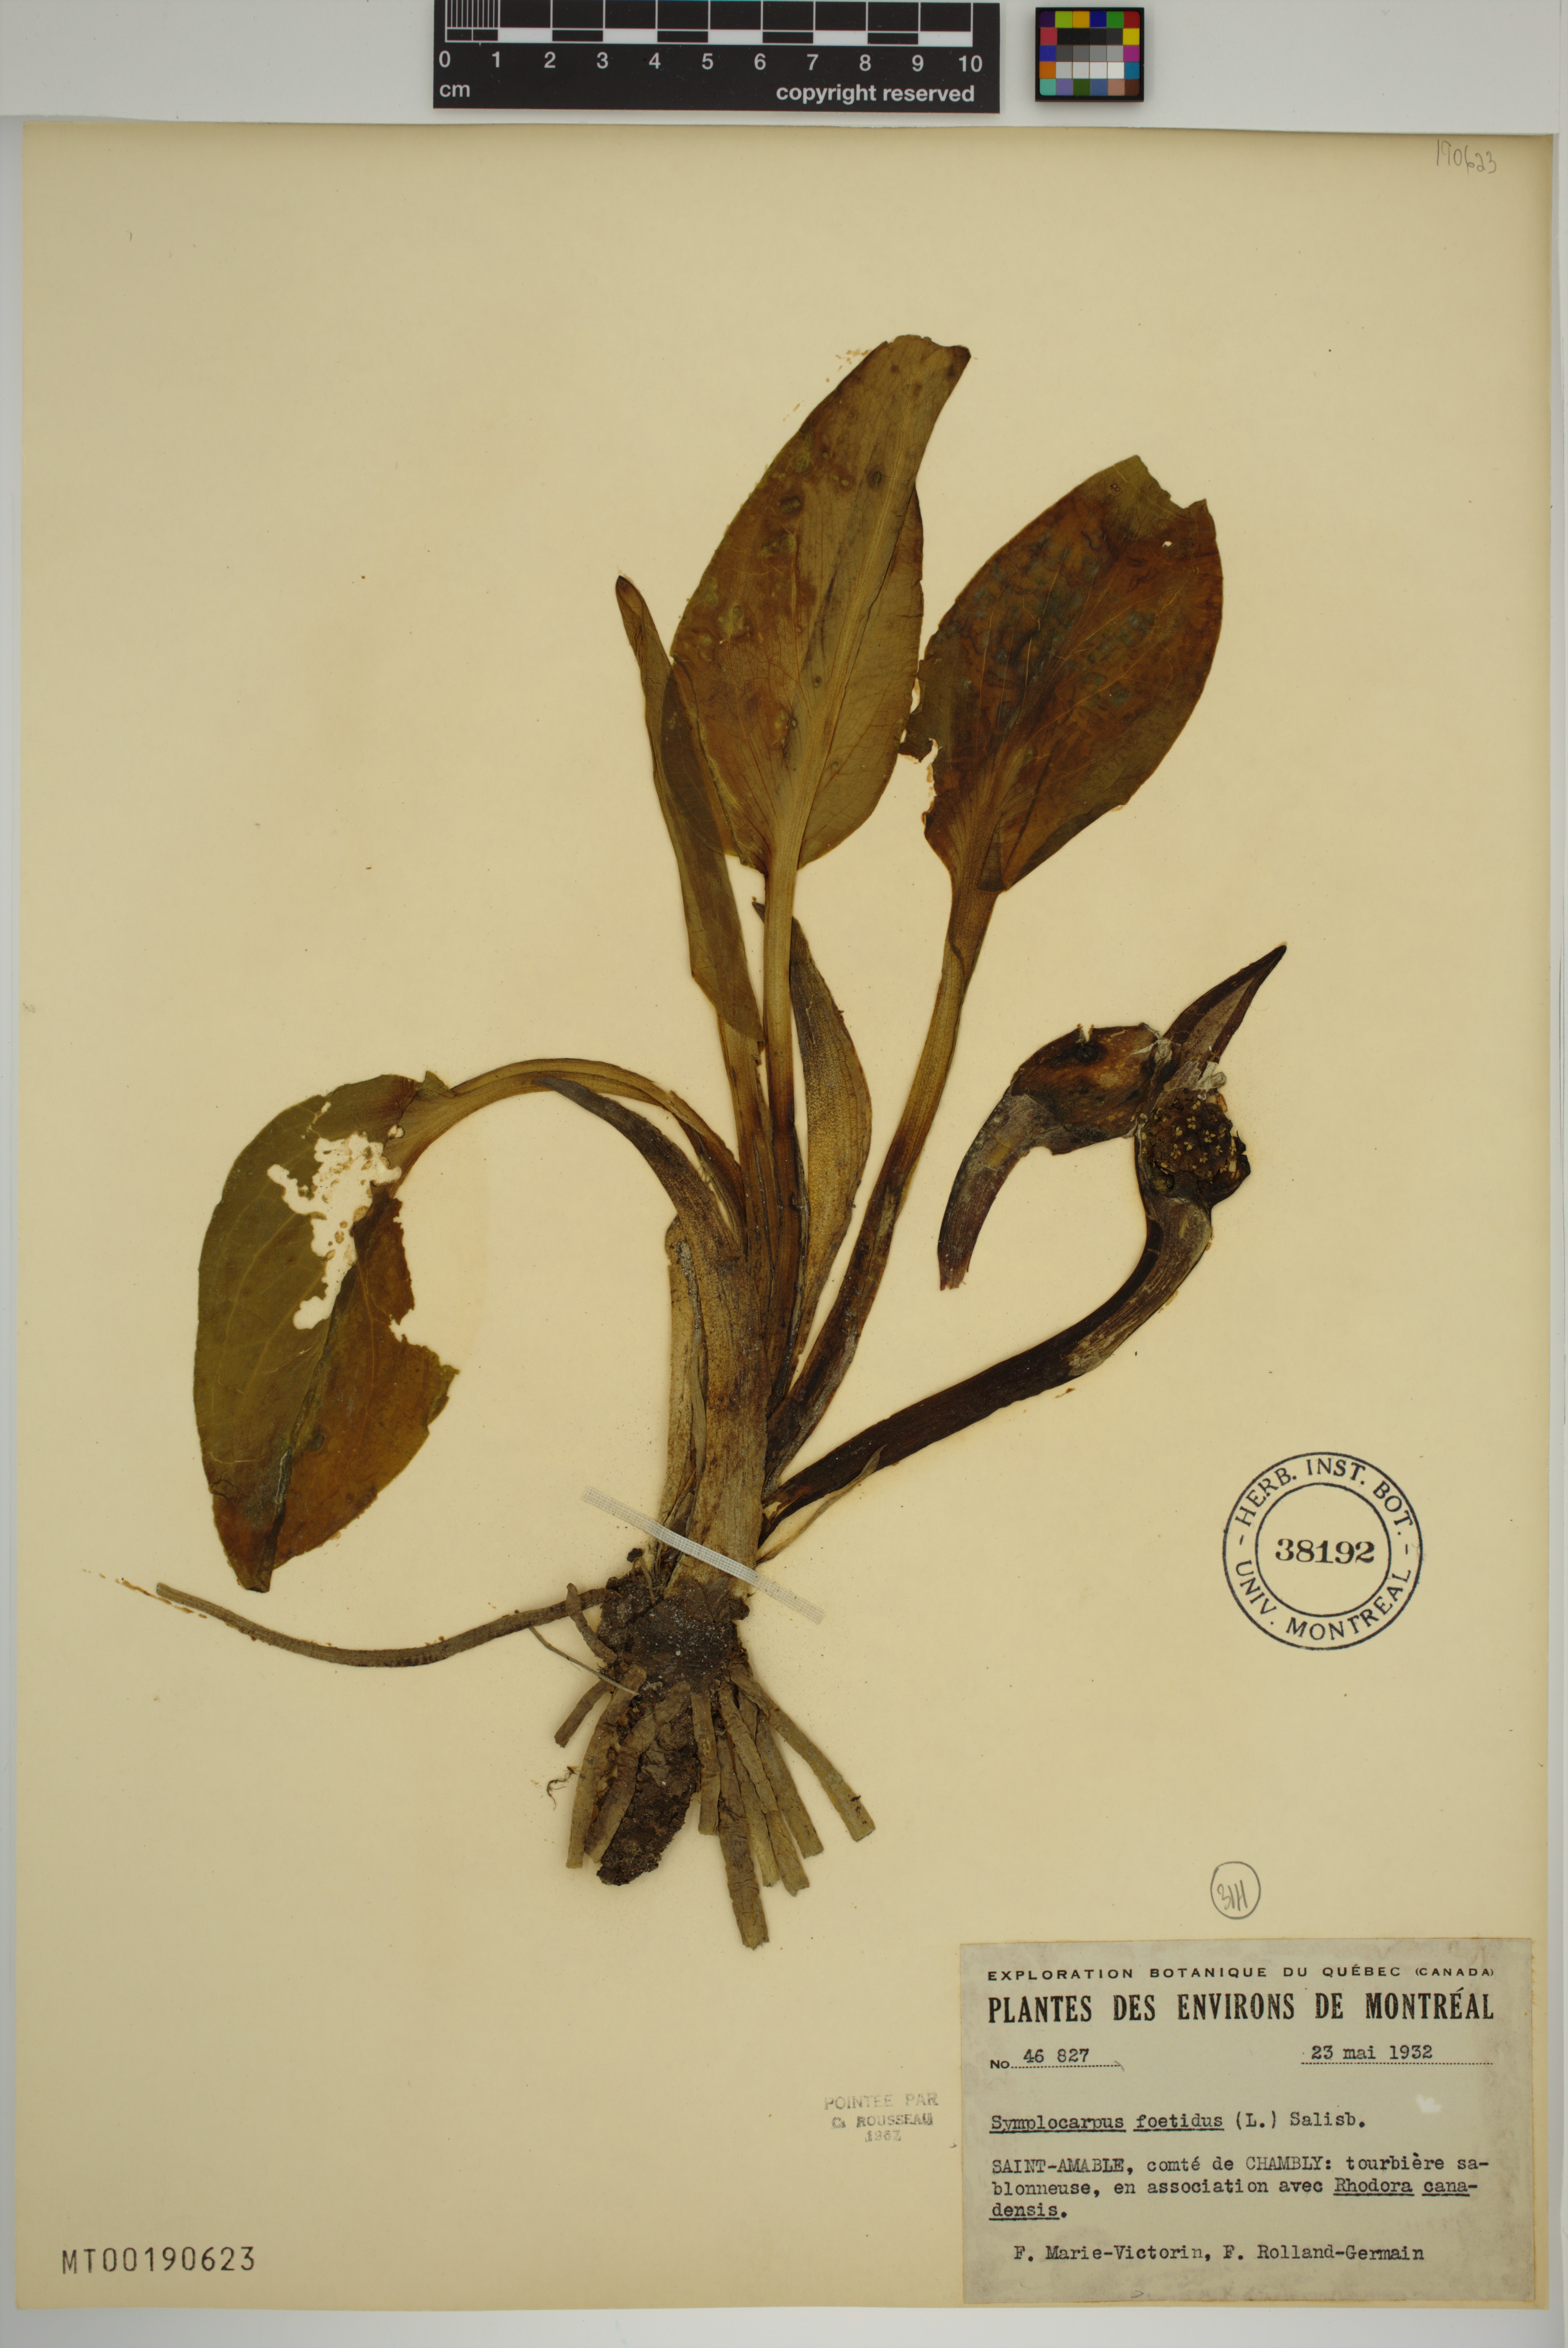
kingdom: Plantae
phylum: Tracheophyta
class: Liliopsida
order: Alismatales
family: Araceae
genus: Symplocarpus
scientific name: Symplocarpus foetidus
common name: Eastern skunk cabbage
